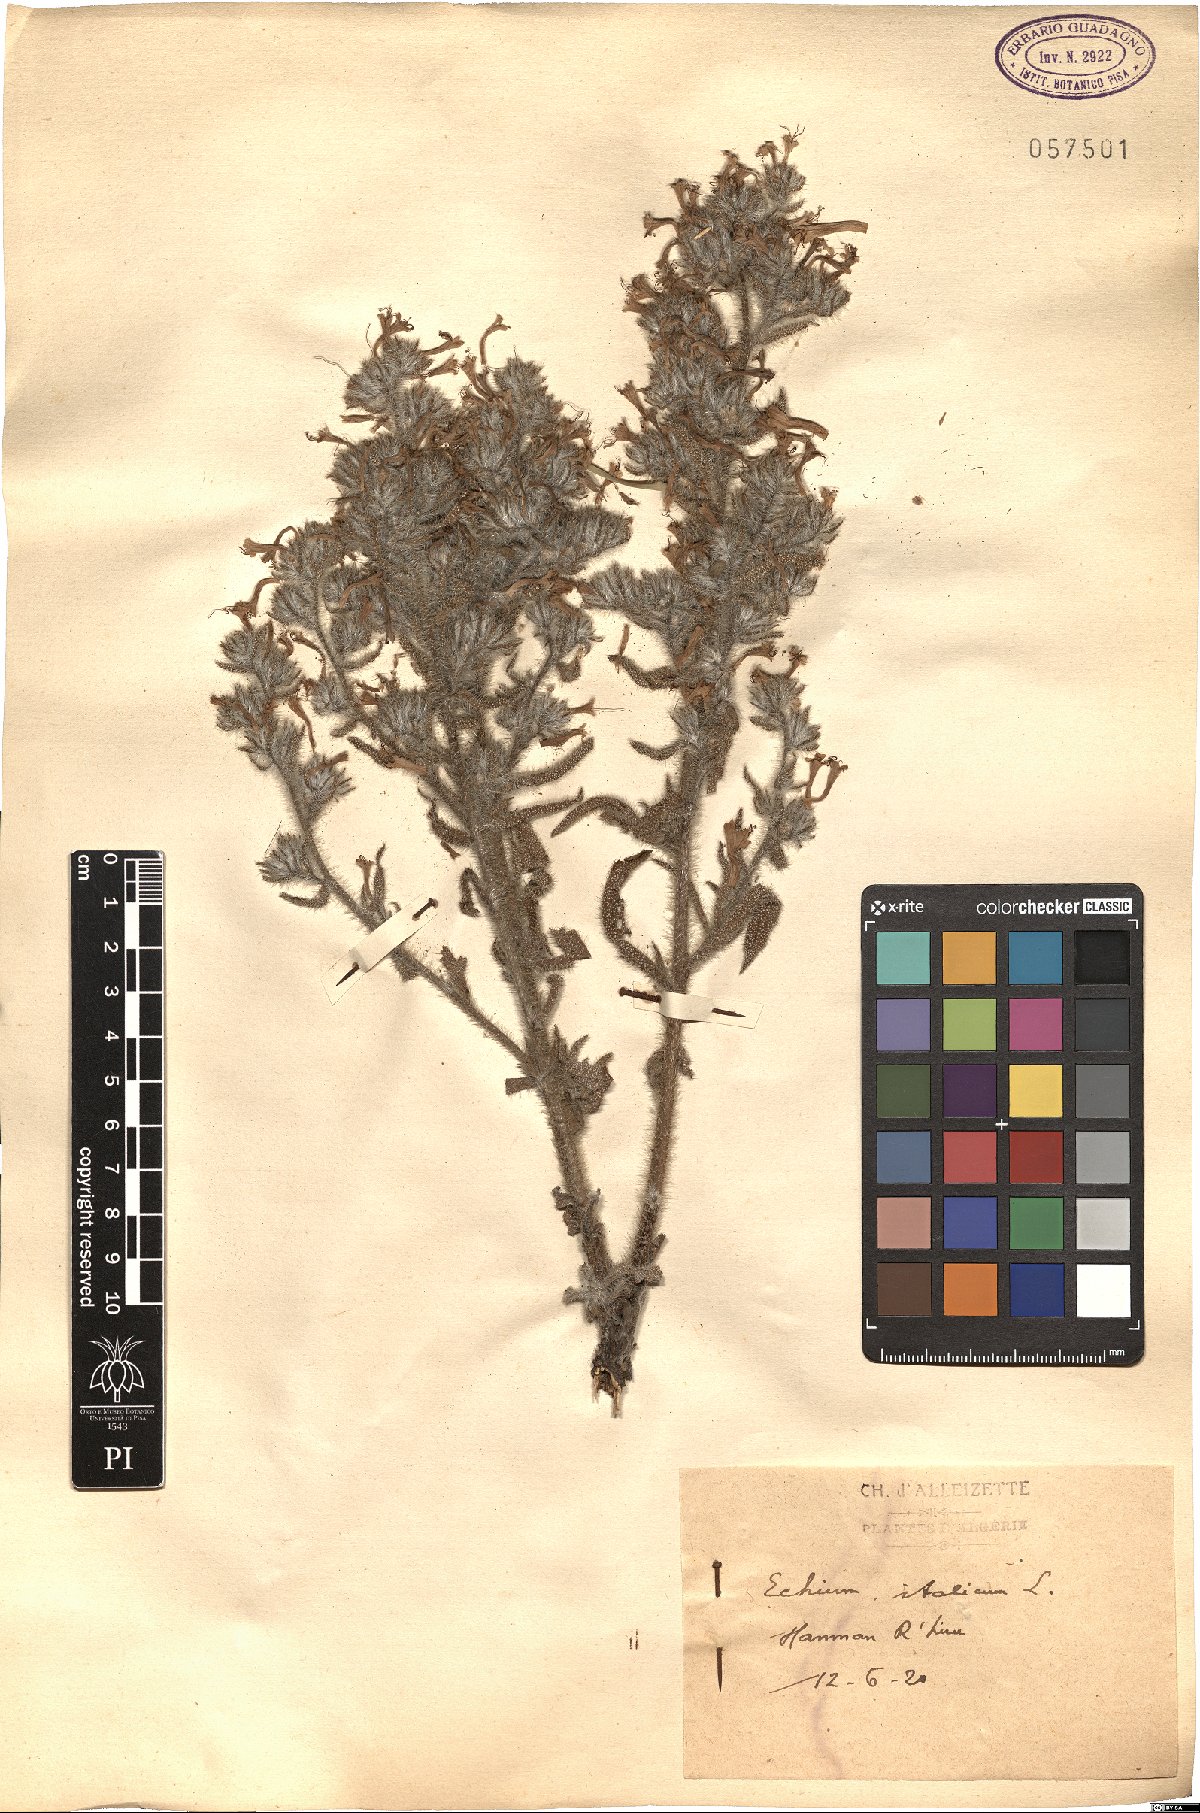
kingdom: Plantae
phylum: Tracheophyta
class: Magnoliopsida
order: Boraginales
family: Boraginaceae
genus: Echium
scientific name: Echium italicum
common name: Italian viper's bugloss
